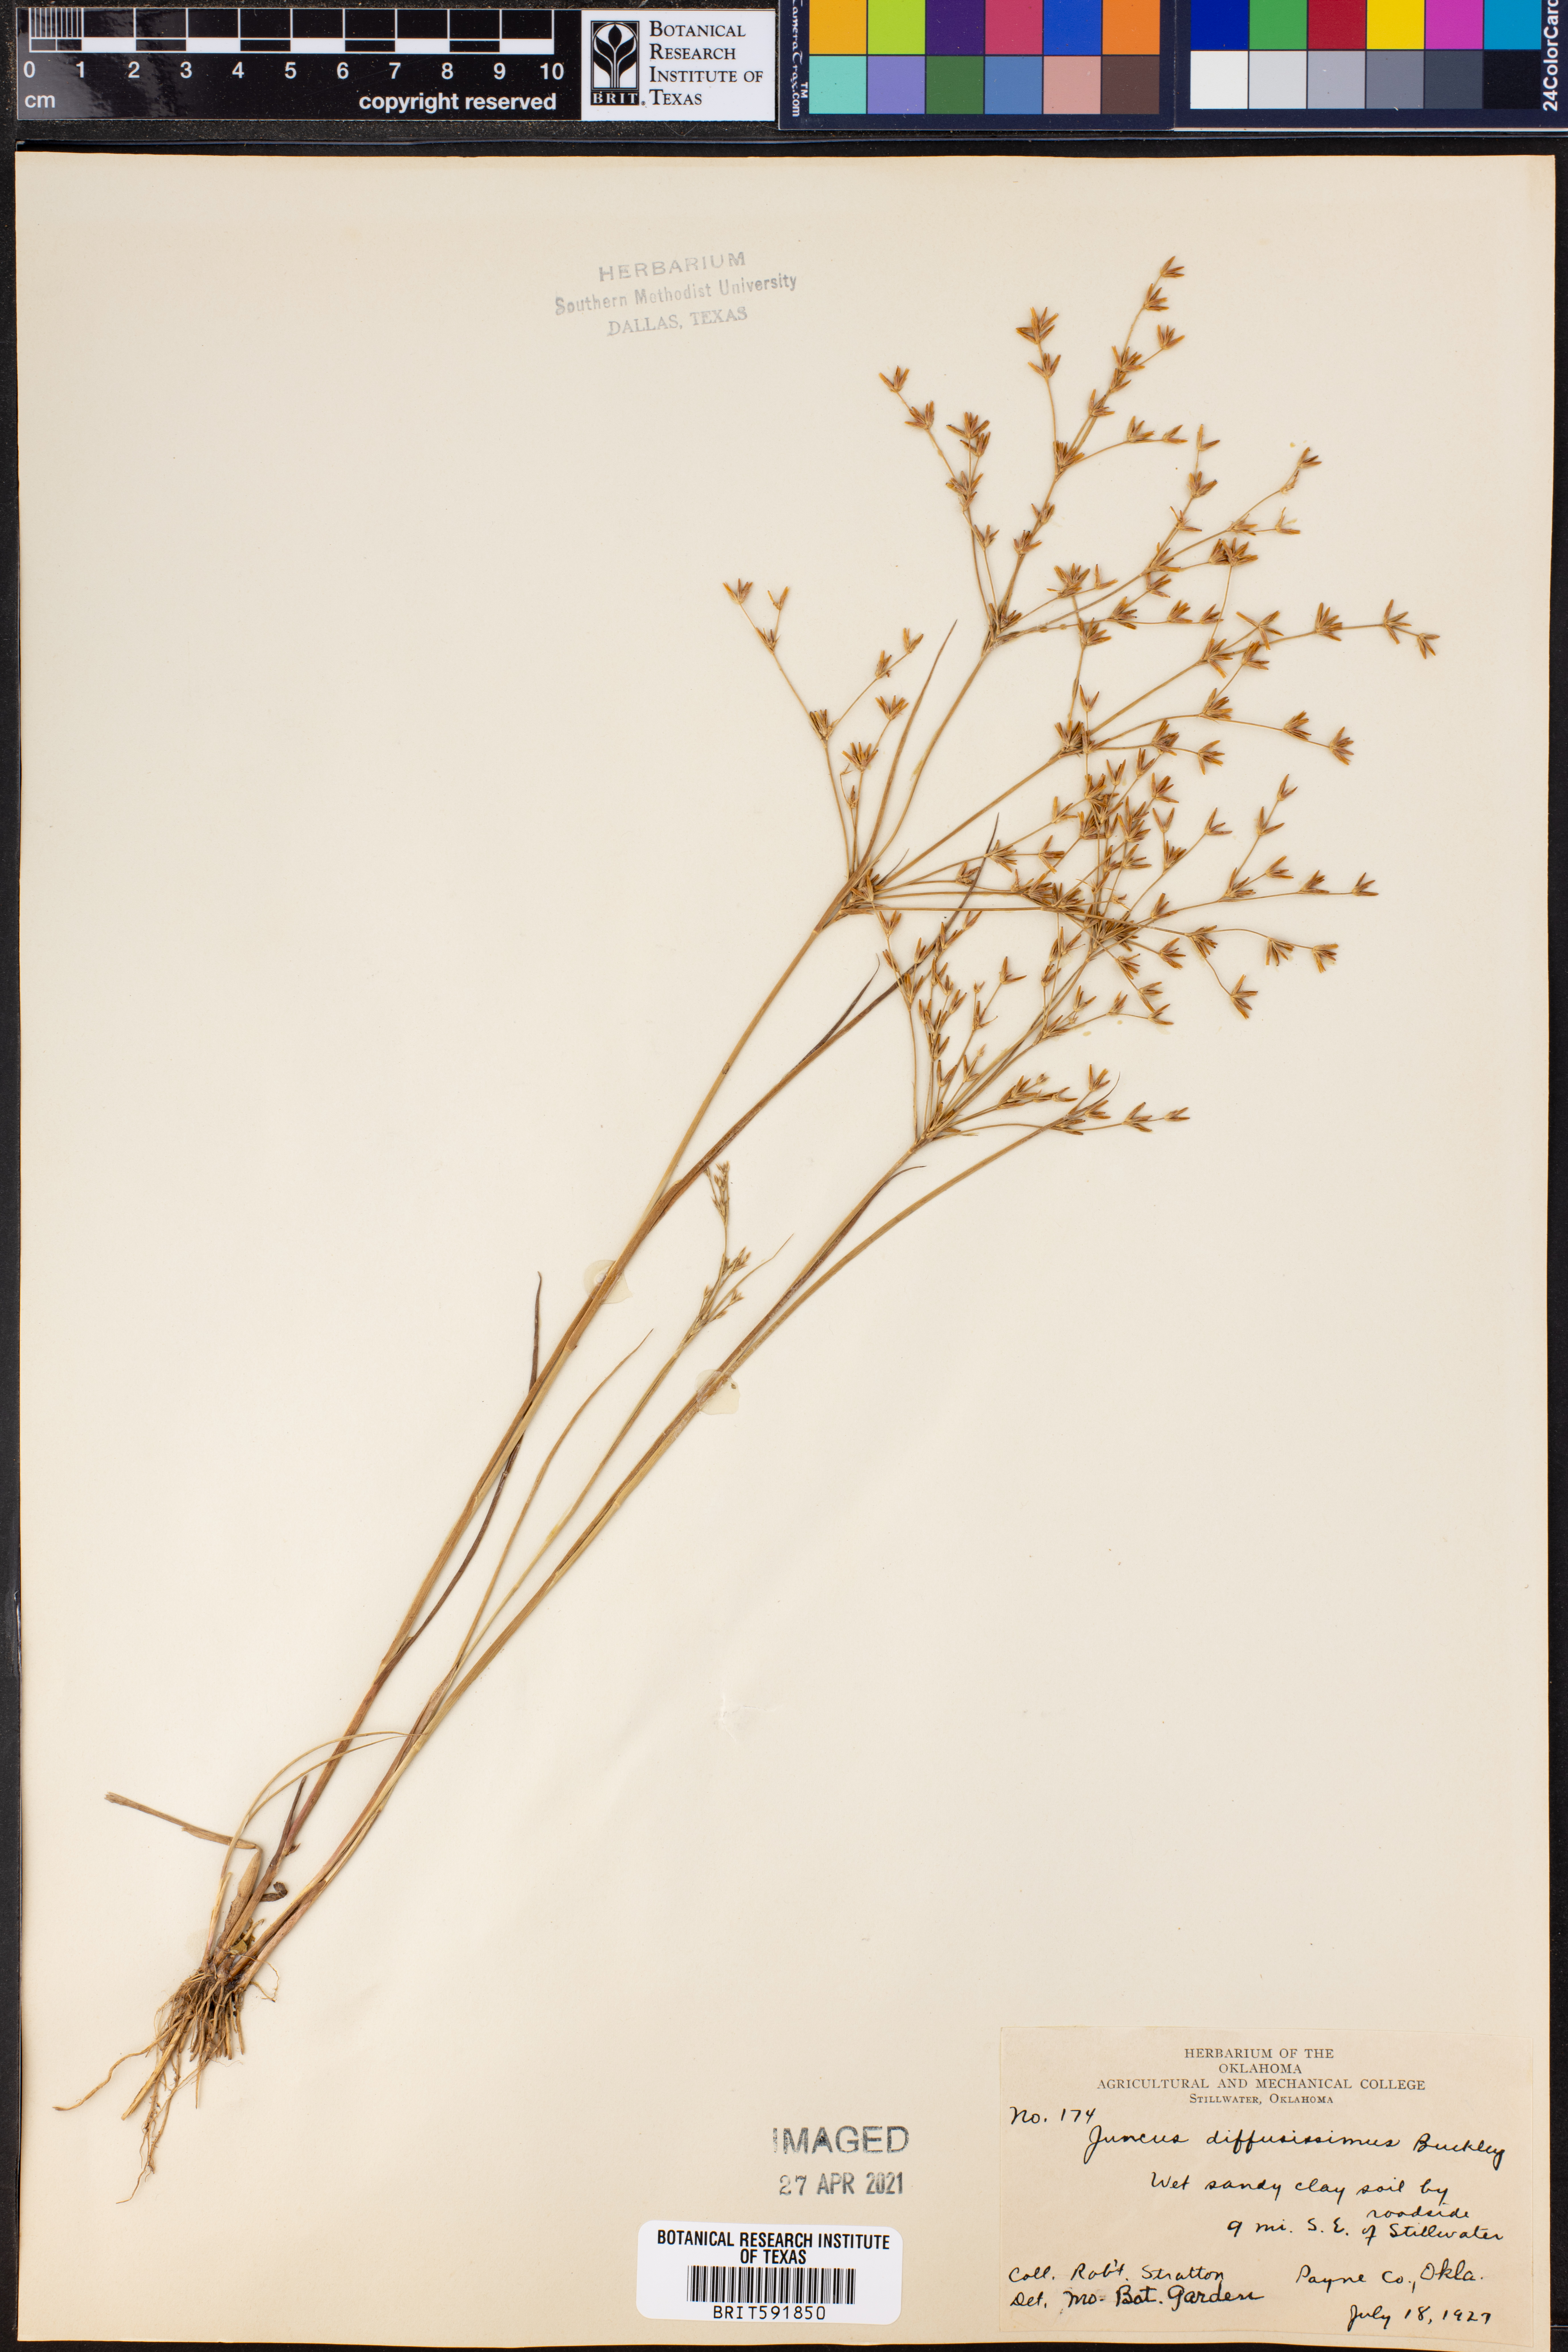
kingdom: Plantae
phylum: Tracheophyta
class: Liliopsida
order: Poales
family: Juncaceae
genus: Juncus
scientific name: Juncus diffusissimus
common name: Slimpod rush
